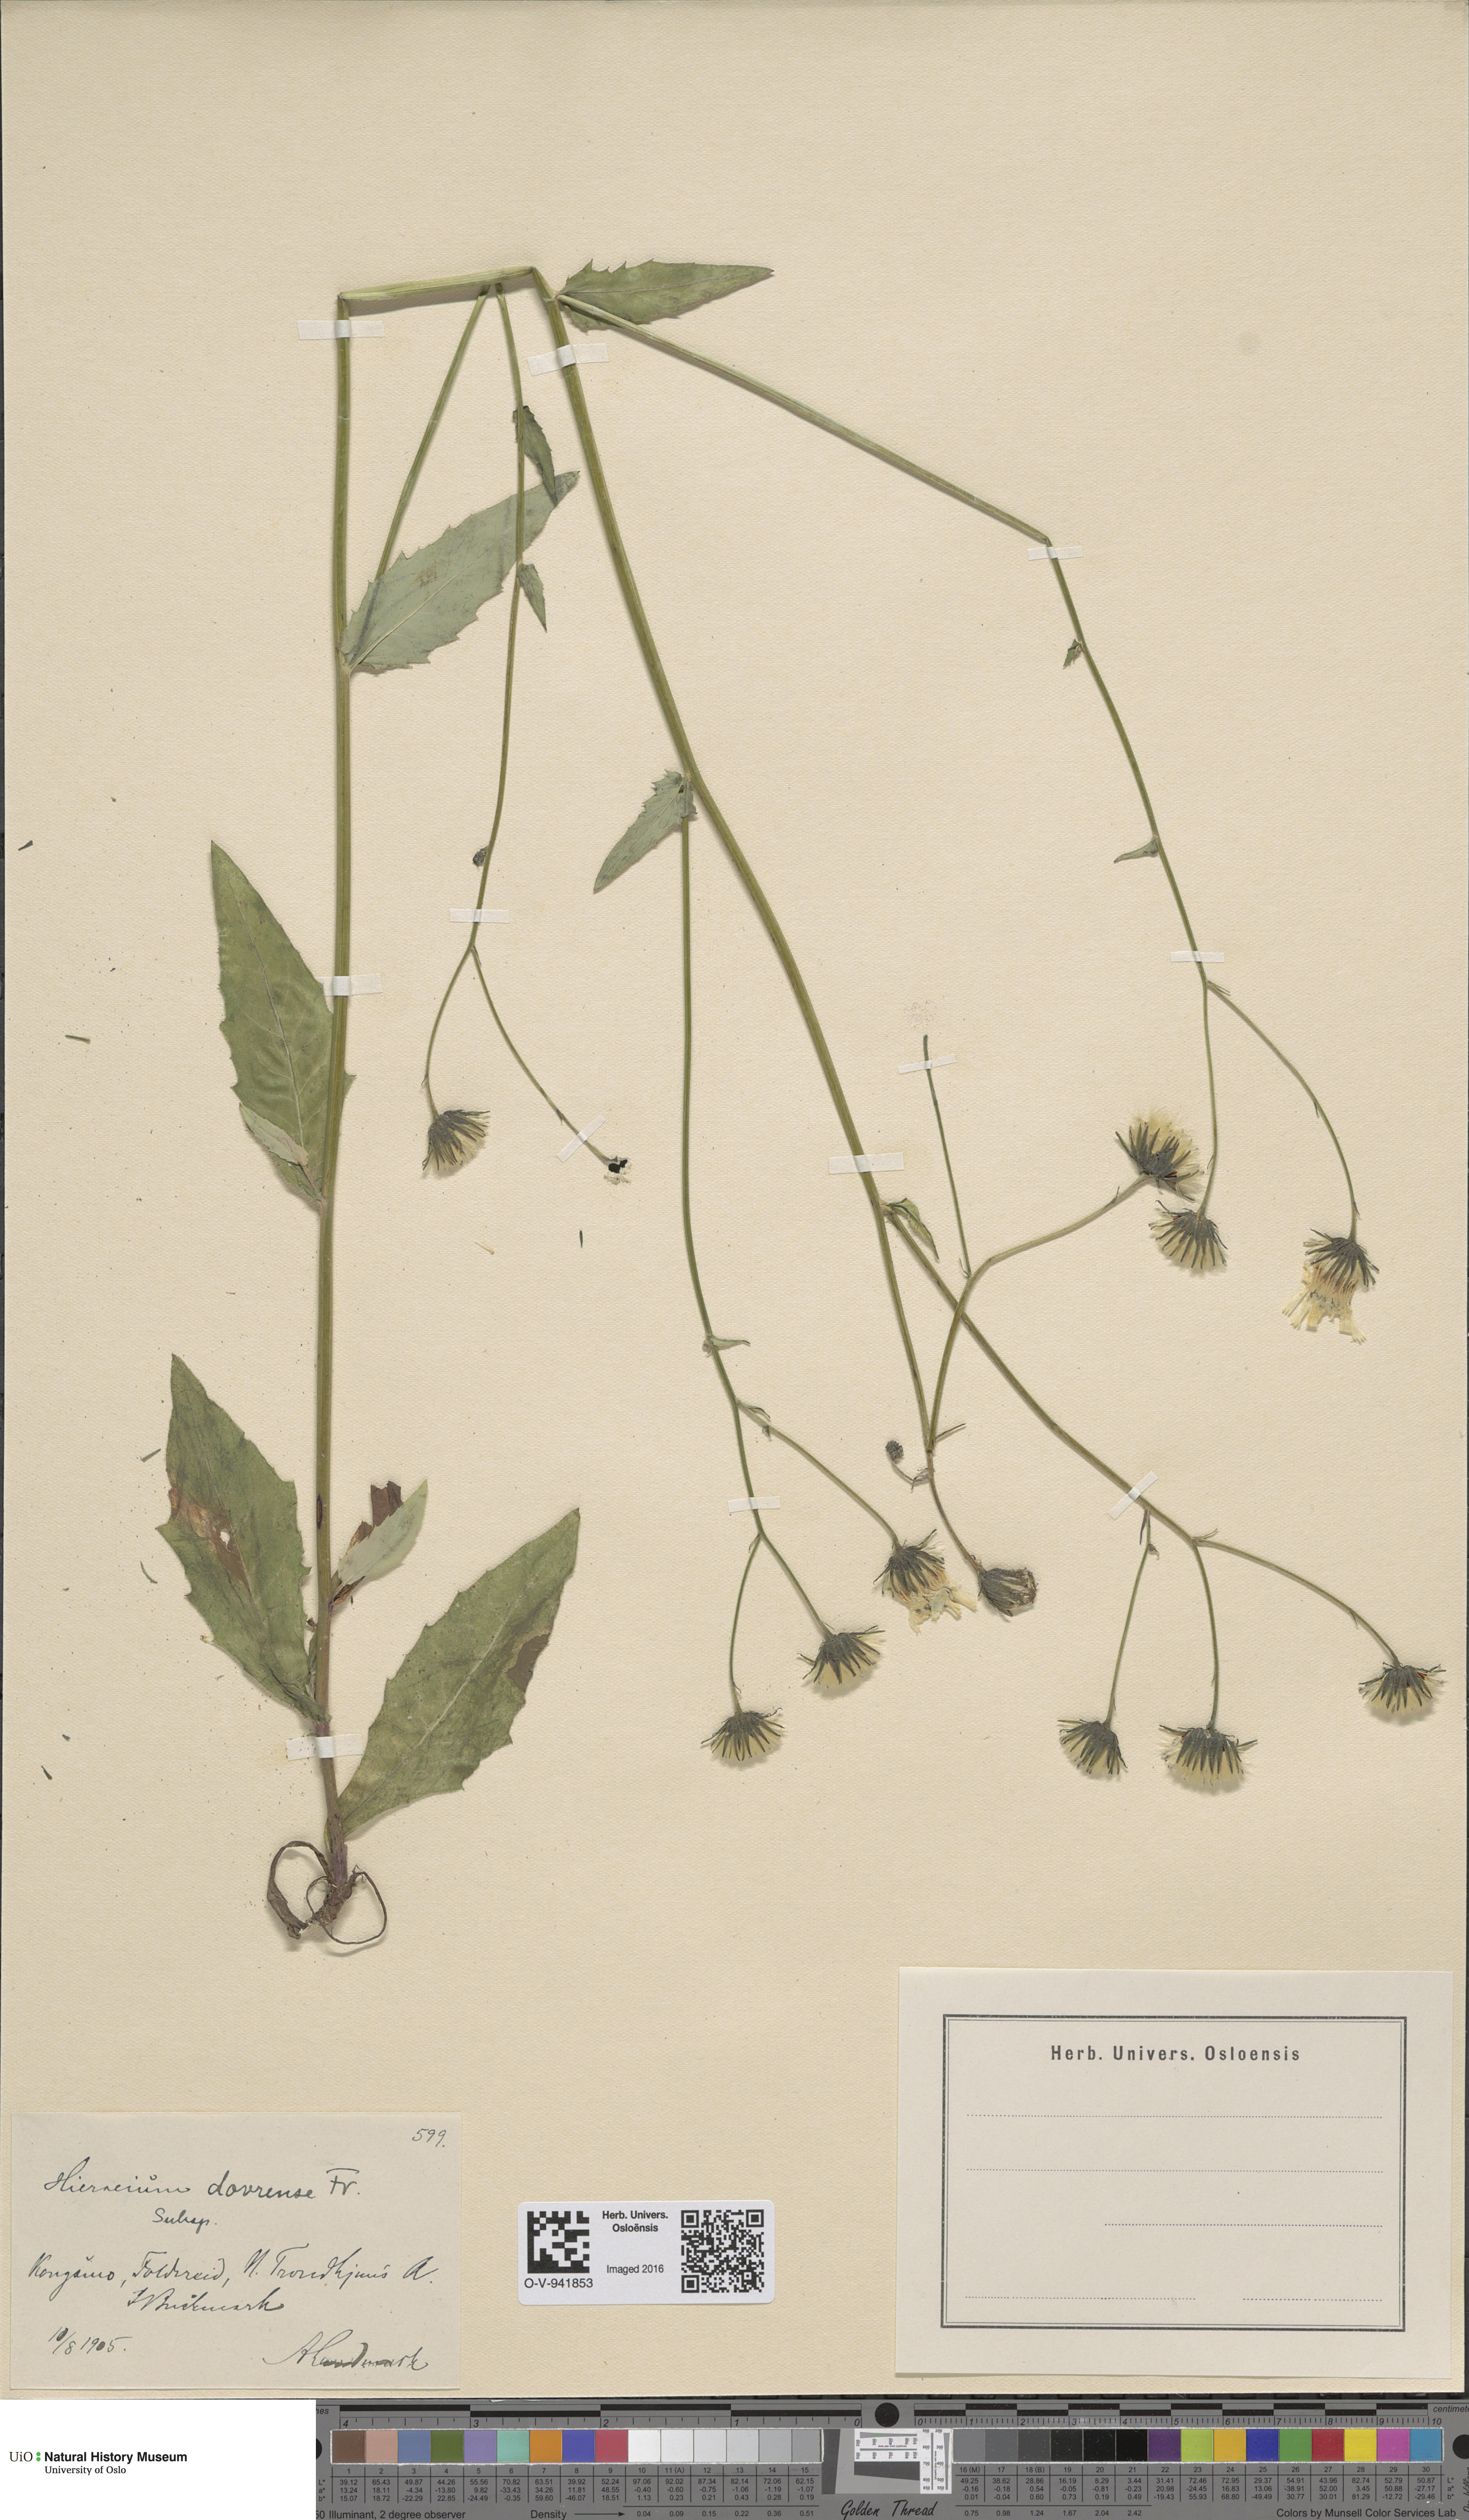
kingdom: Plantae
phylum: Tracheophyta
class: Magnoliopsida
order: Asterales
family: Asteraceae
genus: Hieracium
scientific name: Hieracium dovrense
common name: Dovre hawkweed
